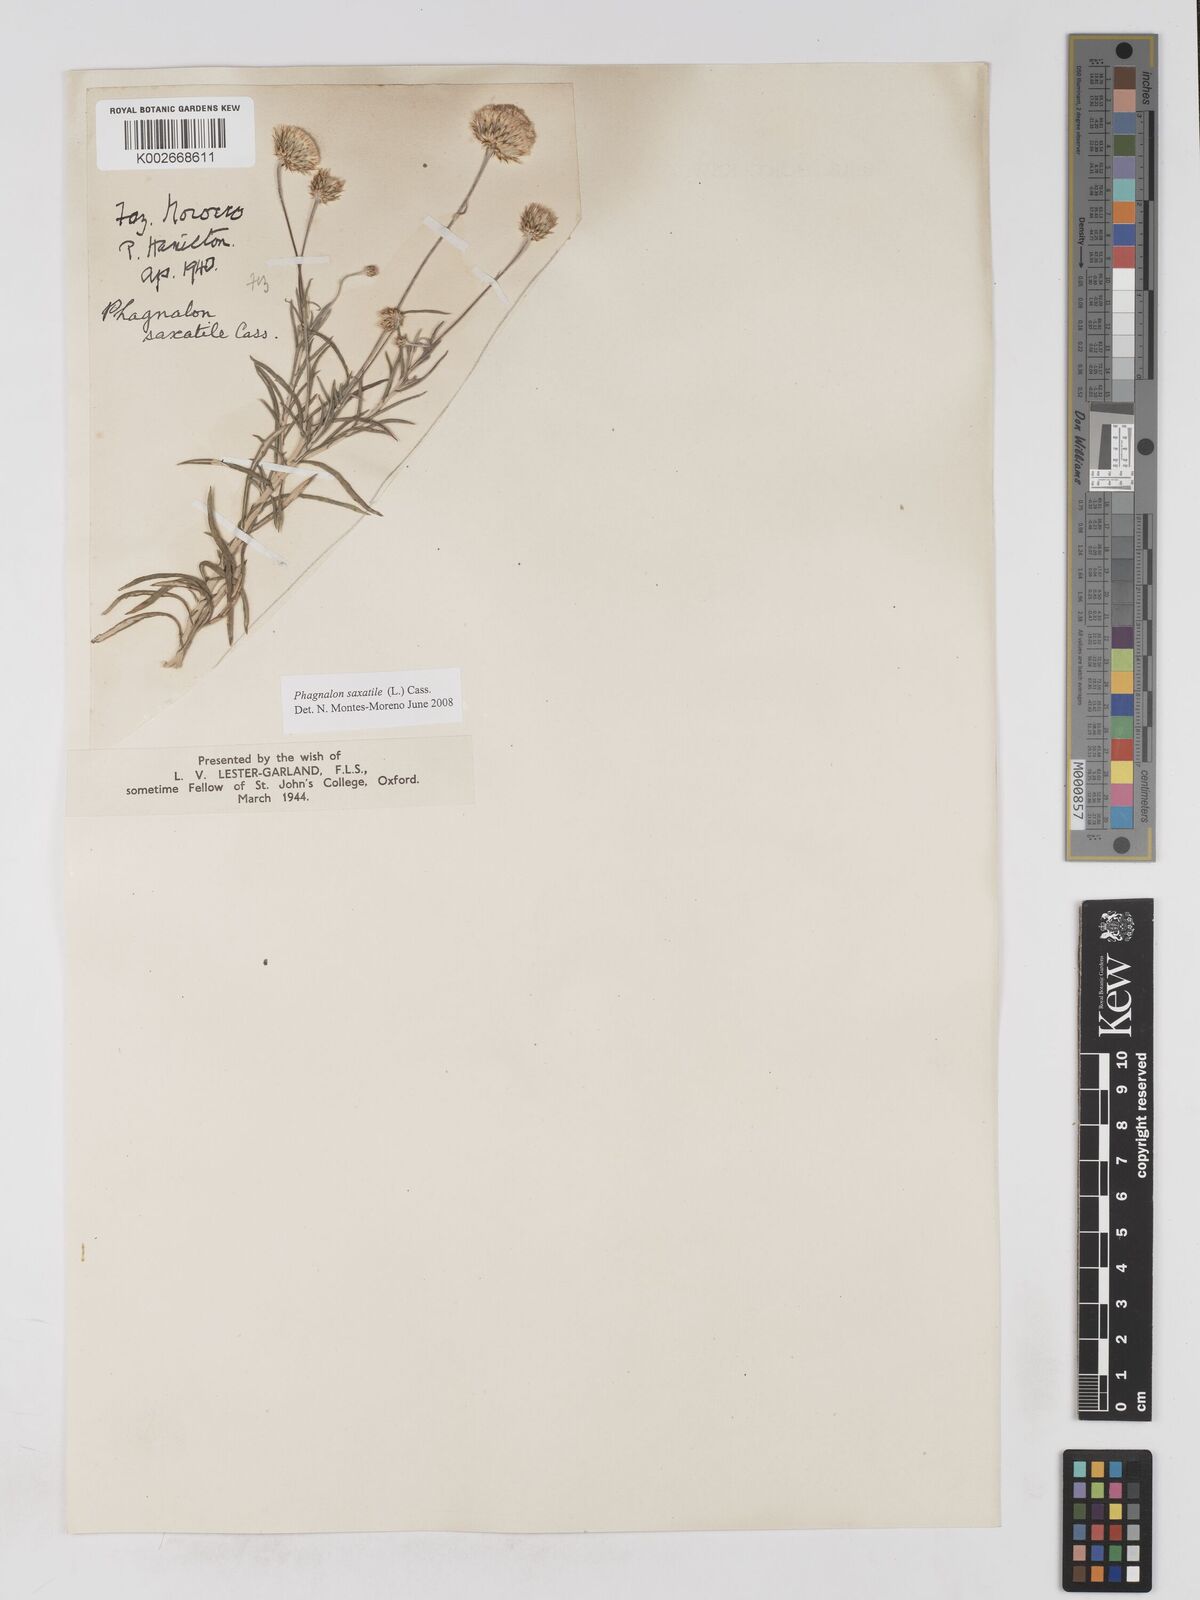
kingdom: Plantae
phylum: Tracheophyta
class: Magnoliopsida
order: Asterales
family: Asteraceae
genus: Phagnalon
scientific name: Phagnalon saxatile
